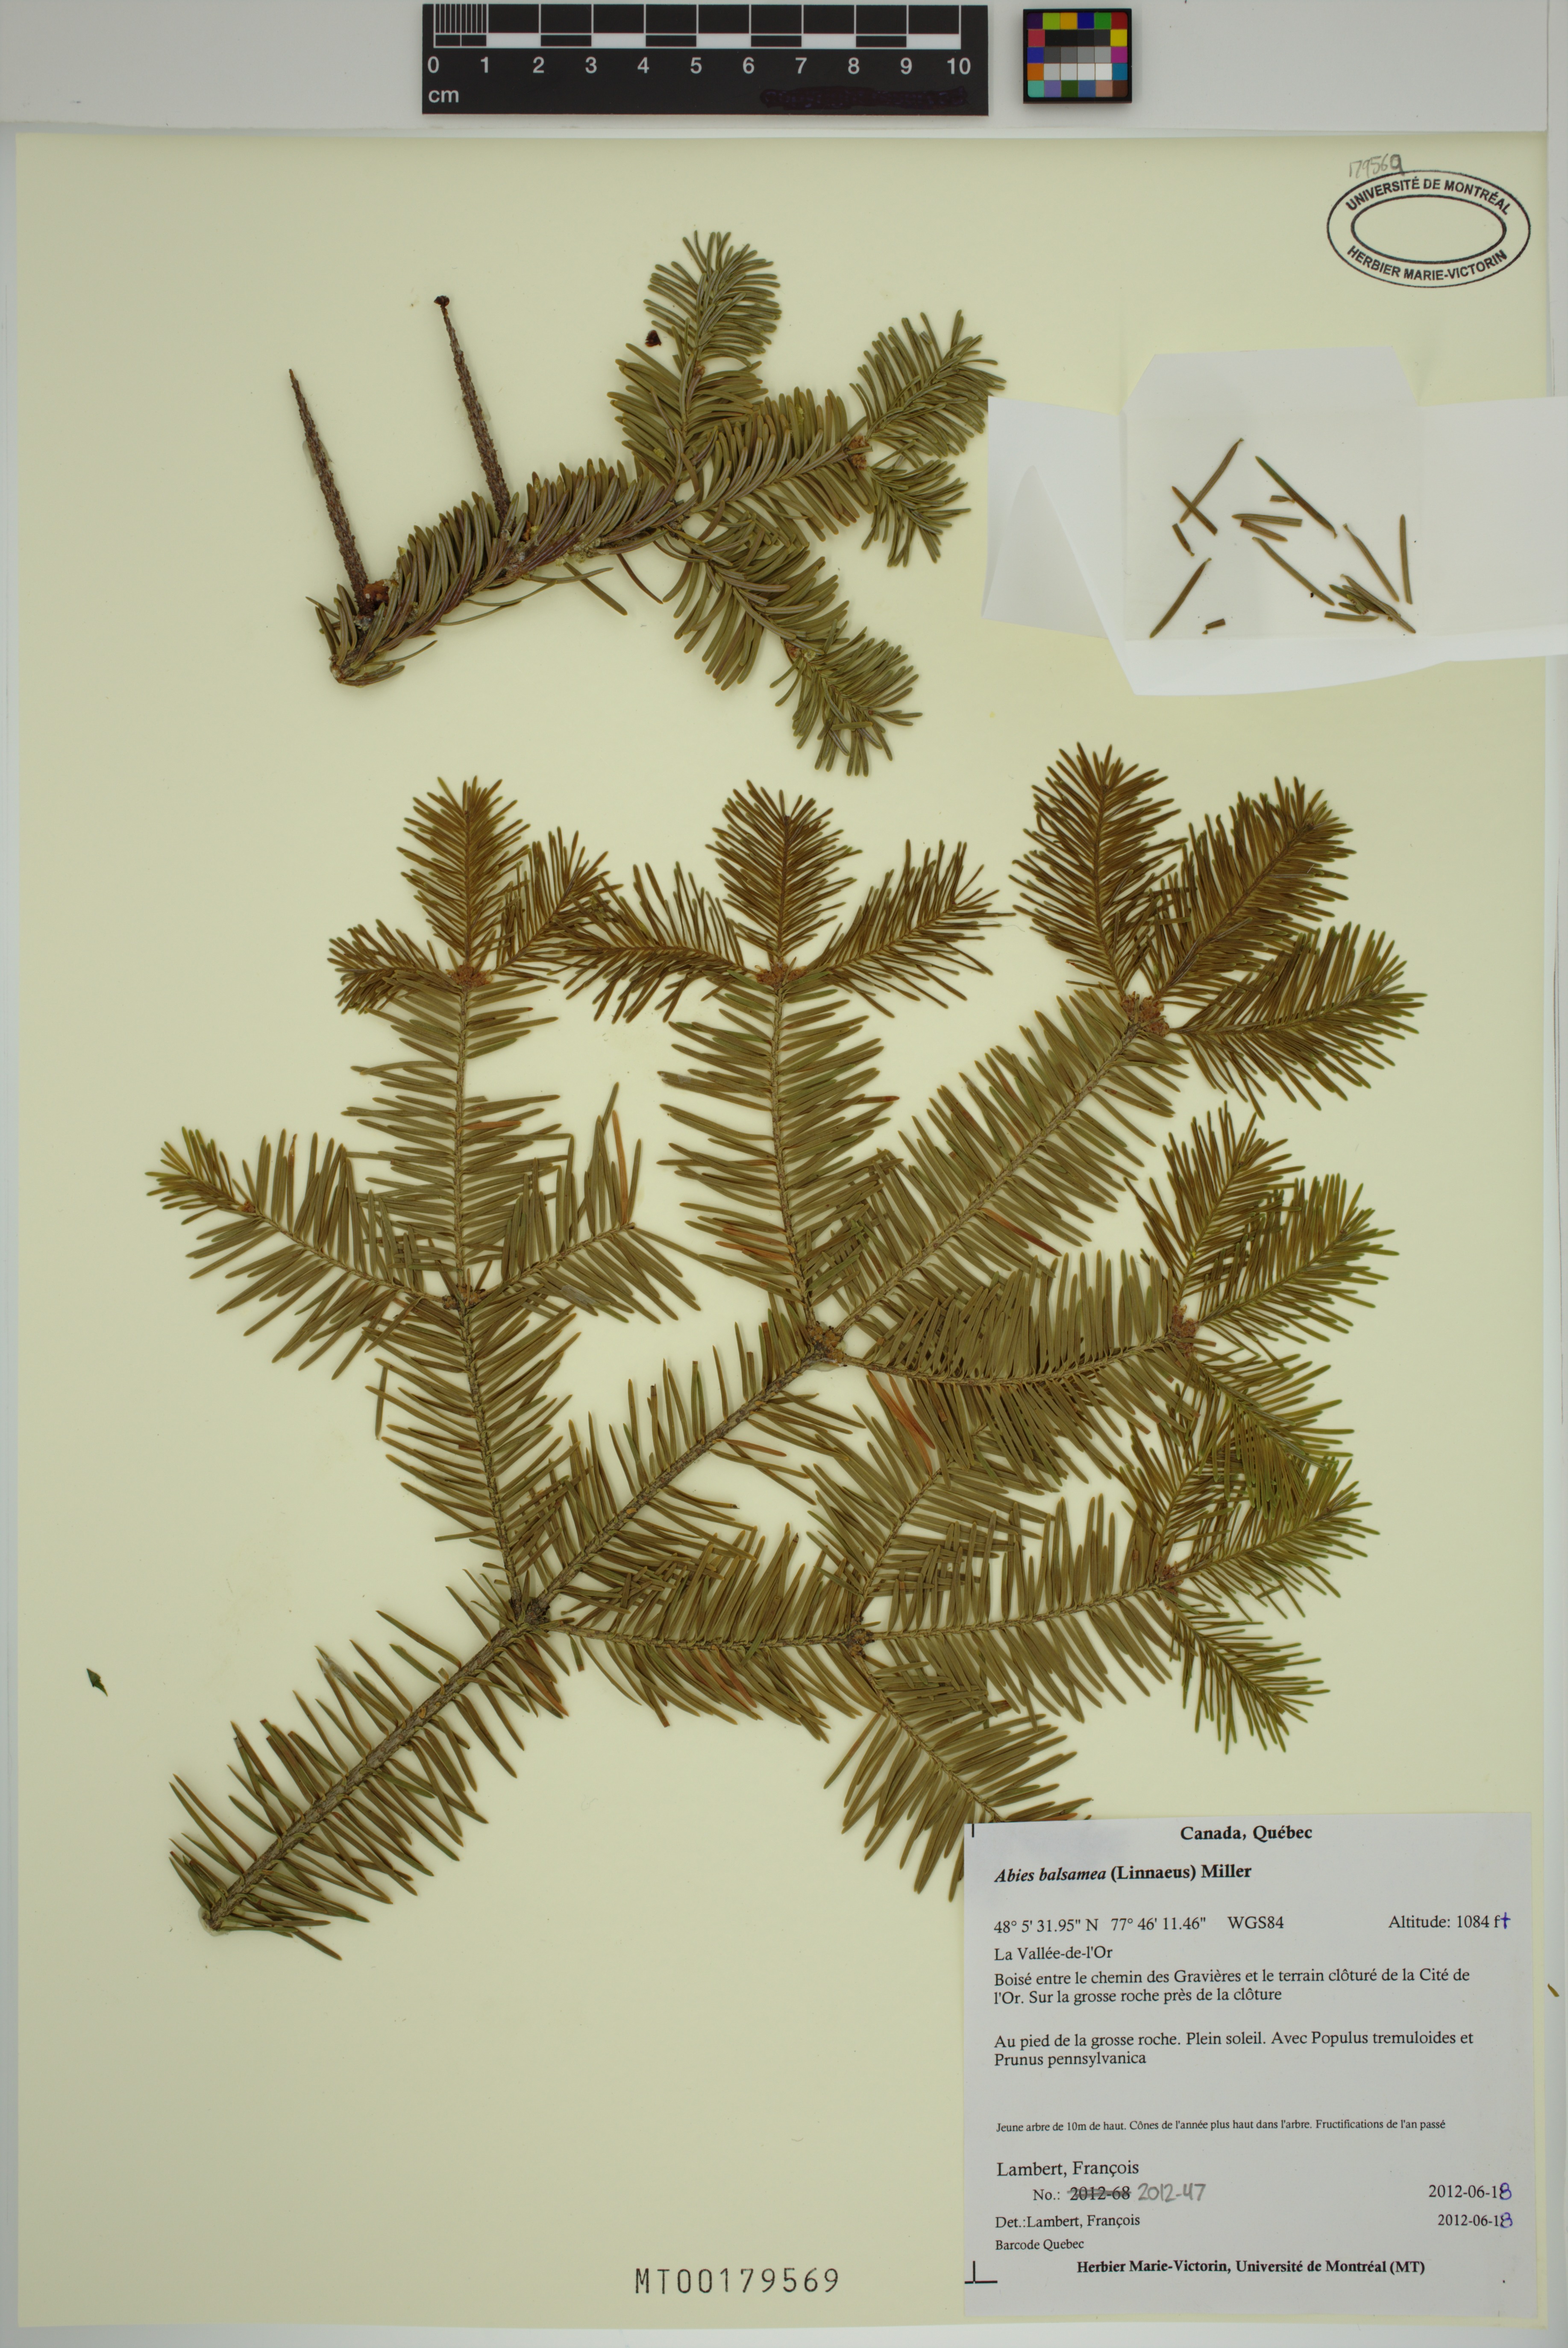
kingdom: Plantae
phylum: Tracheophyta
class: Pinopsida
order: Pinales
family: Pinaceae
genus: Abies
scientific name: Abies balsamea
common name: Balsam fir
